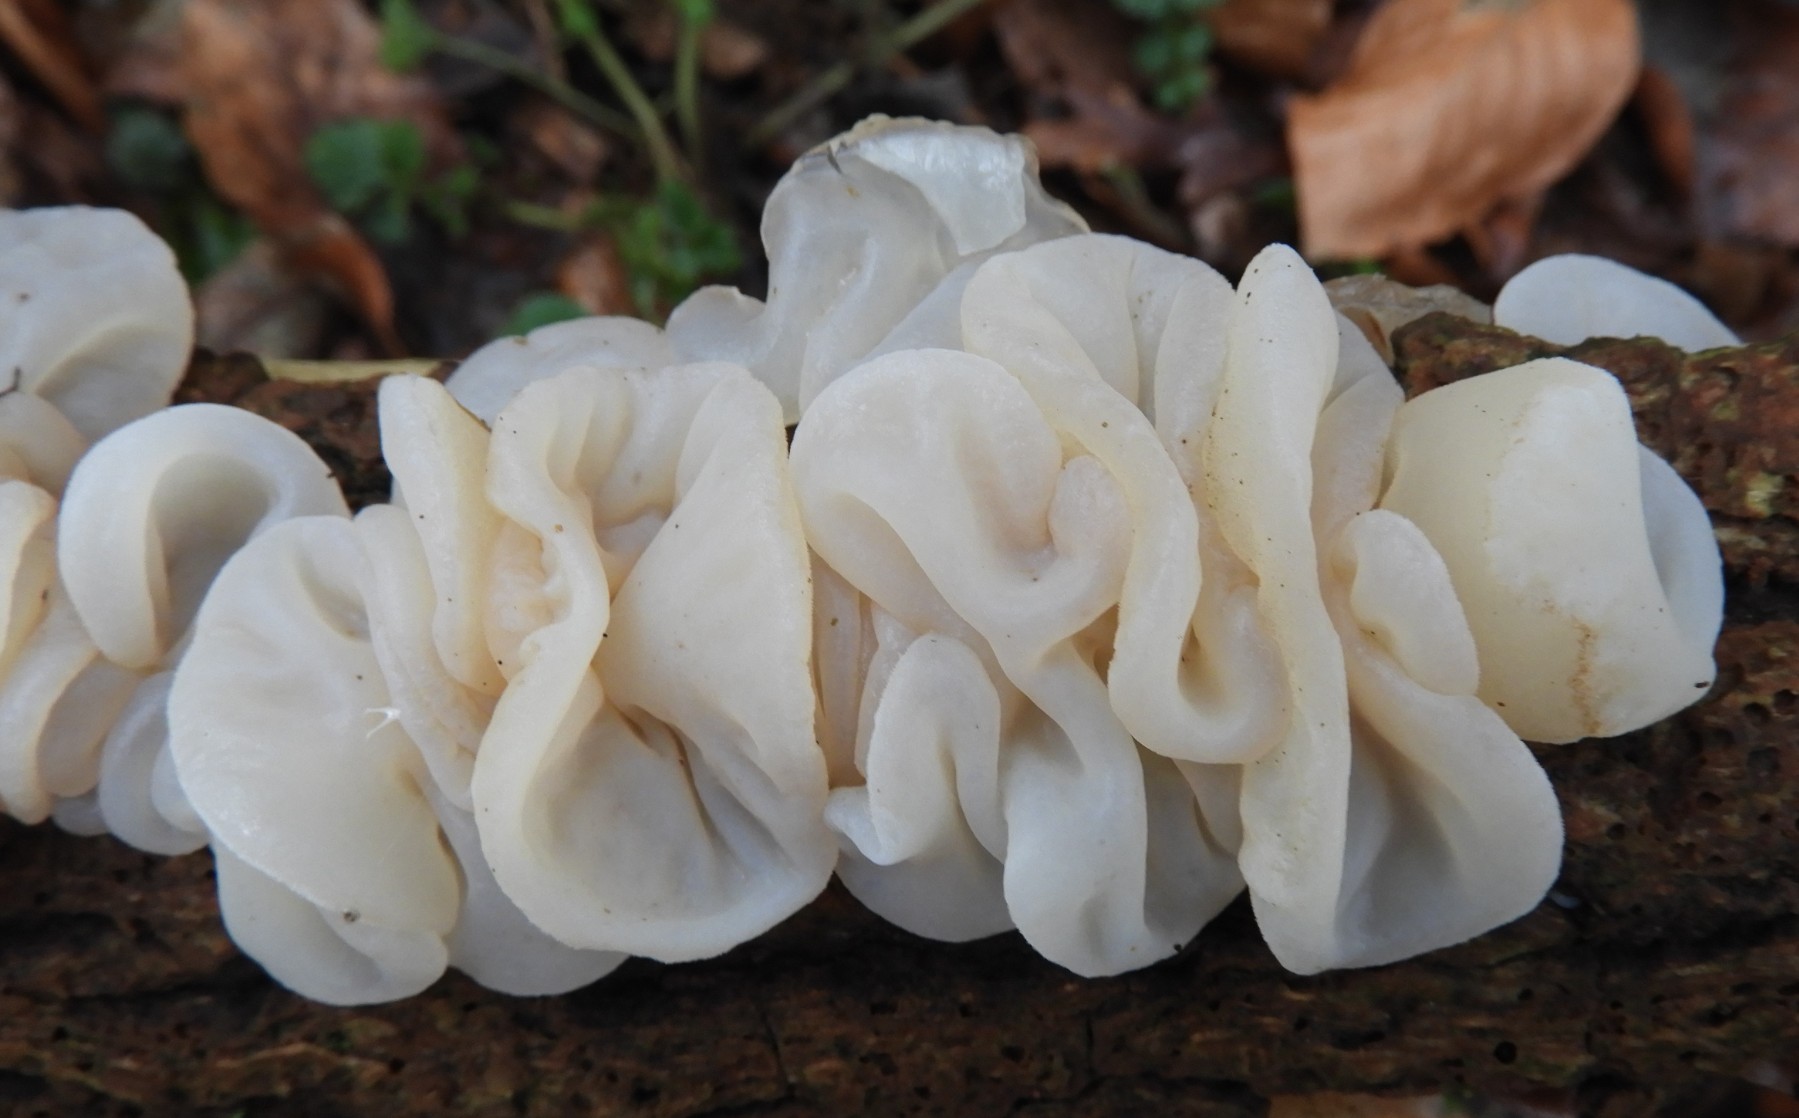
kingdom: Fungi
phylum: Basidiomycota
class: Agaricomycetes
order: Auriculariales
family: Auriculariaceae
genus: Auricularia
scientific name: Auricularia auricula-judae
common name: almindelig judasøre
